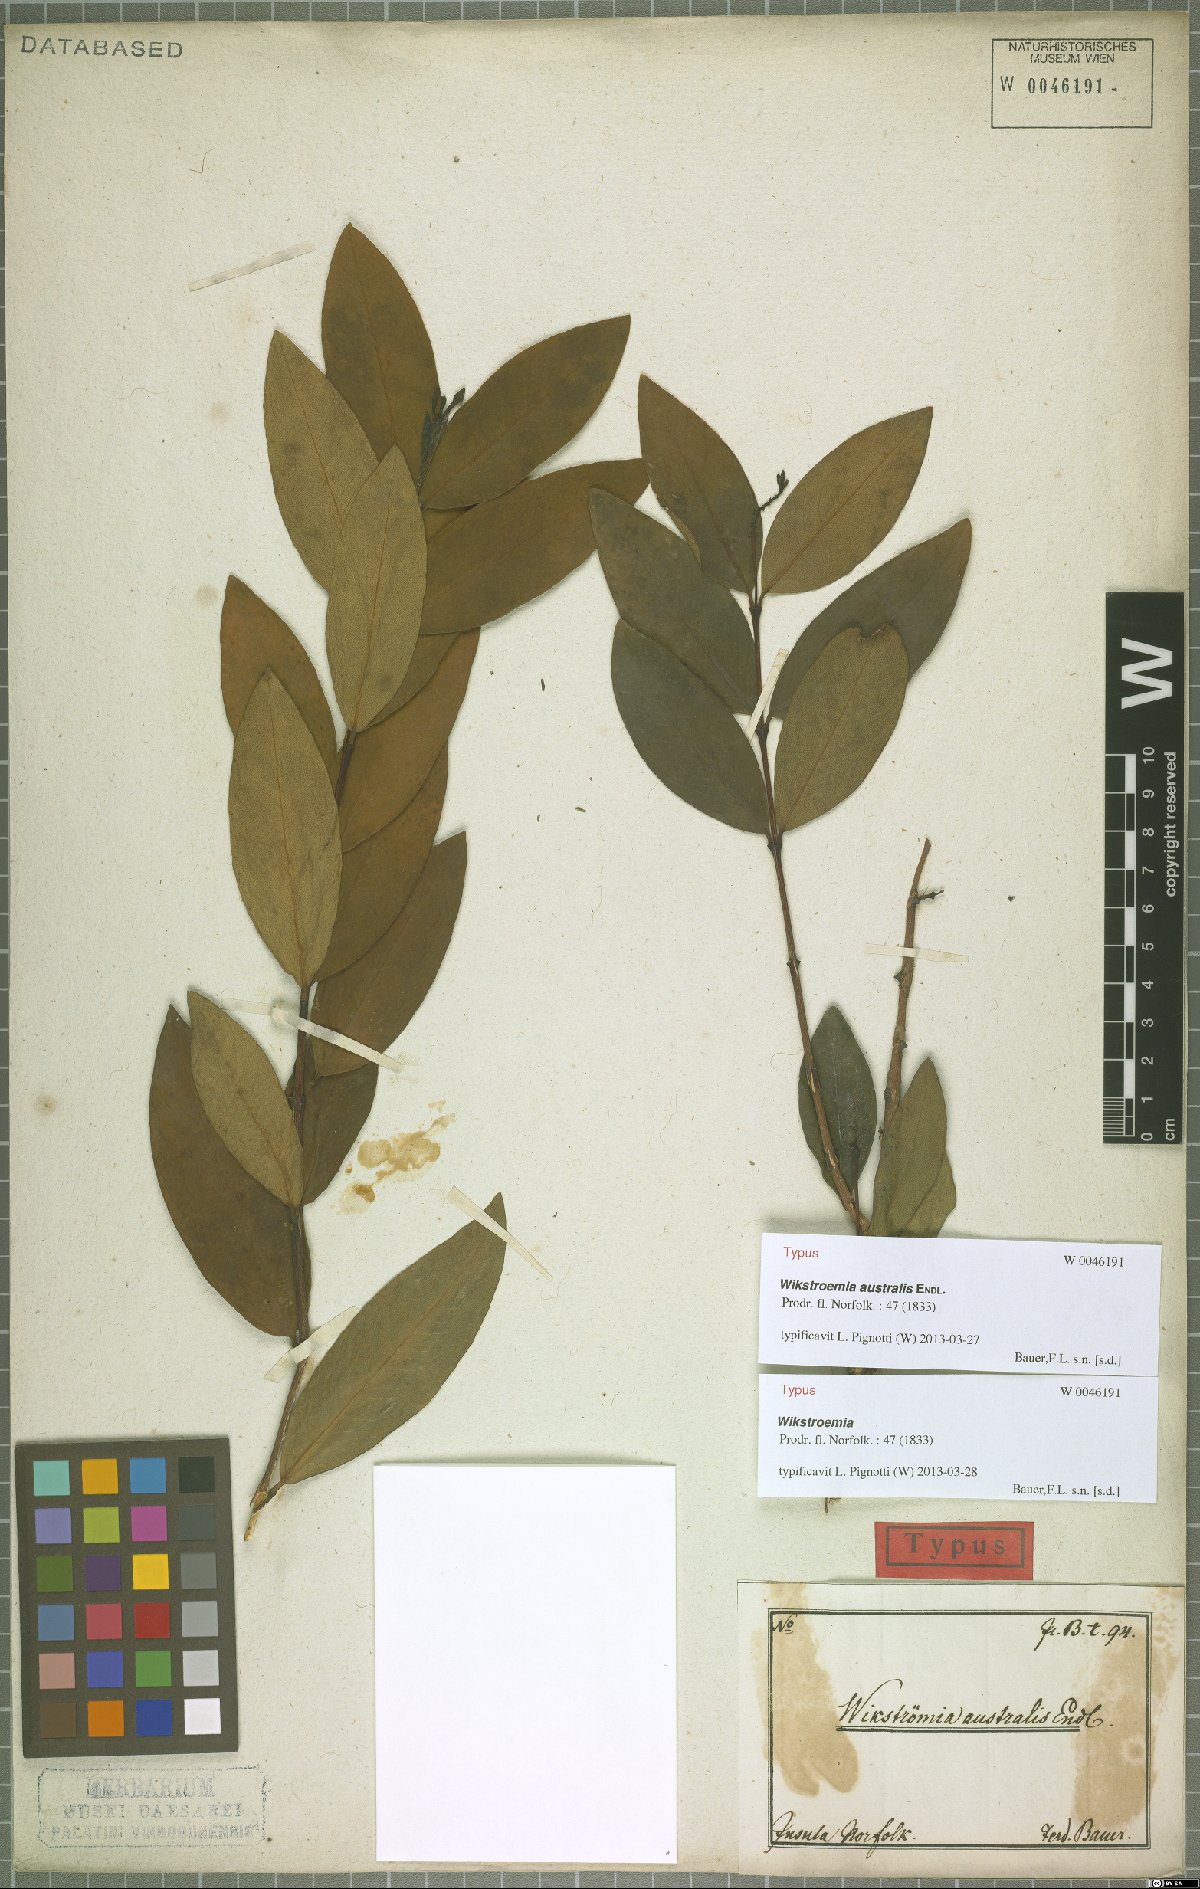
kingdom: Plantae
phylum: Tracheophyta
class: Magnoliopsida
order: Malvales
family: Thymelaeaceae
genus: Wikstroemia
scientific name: Wikstroemia australis
